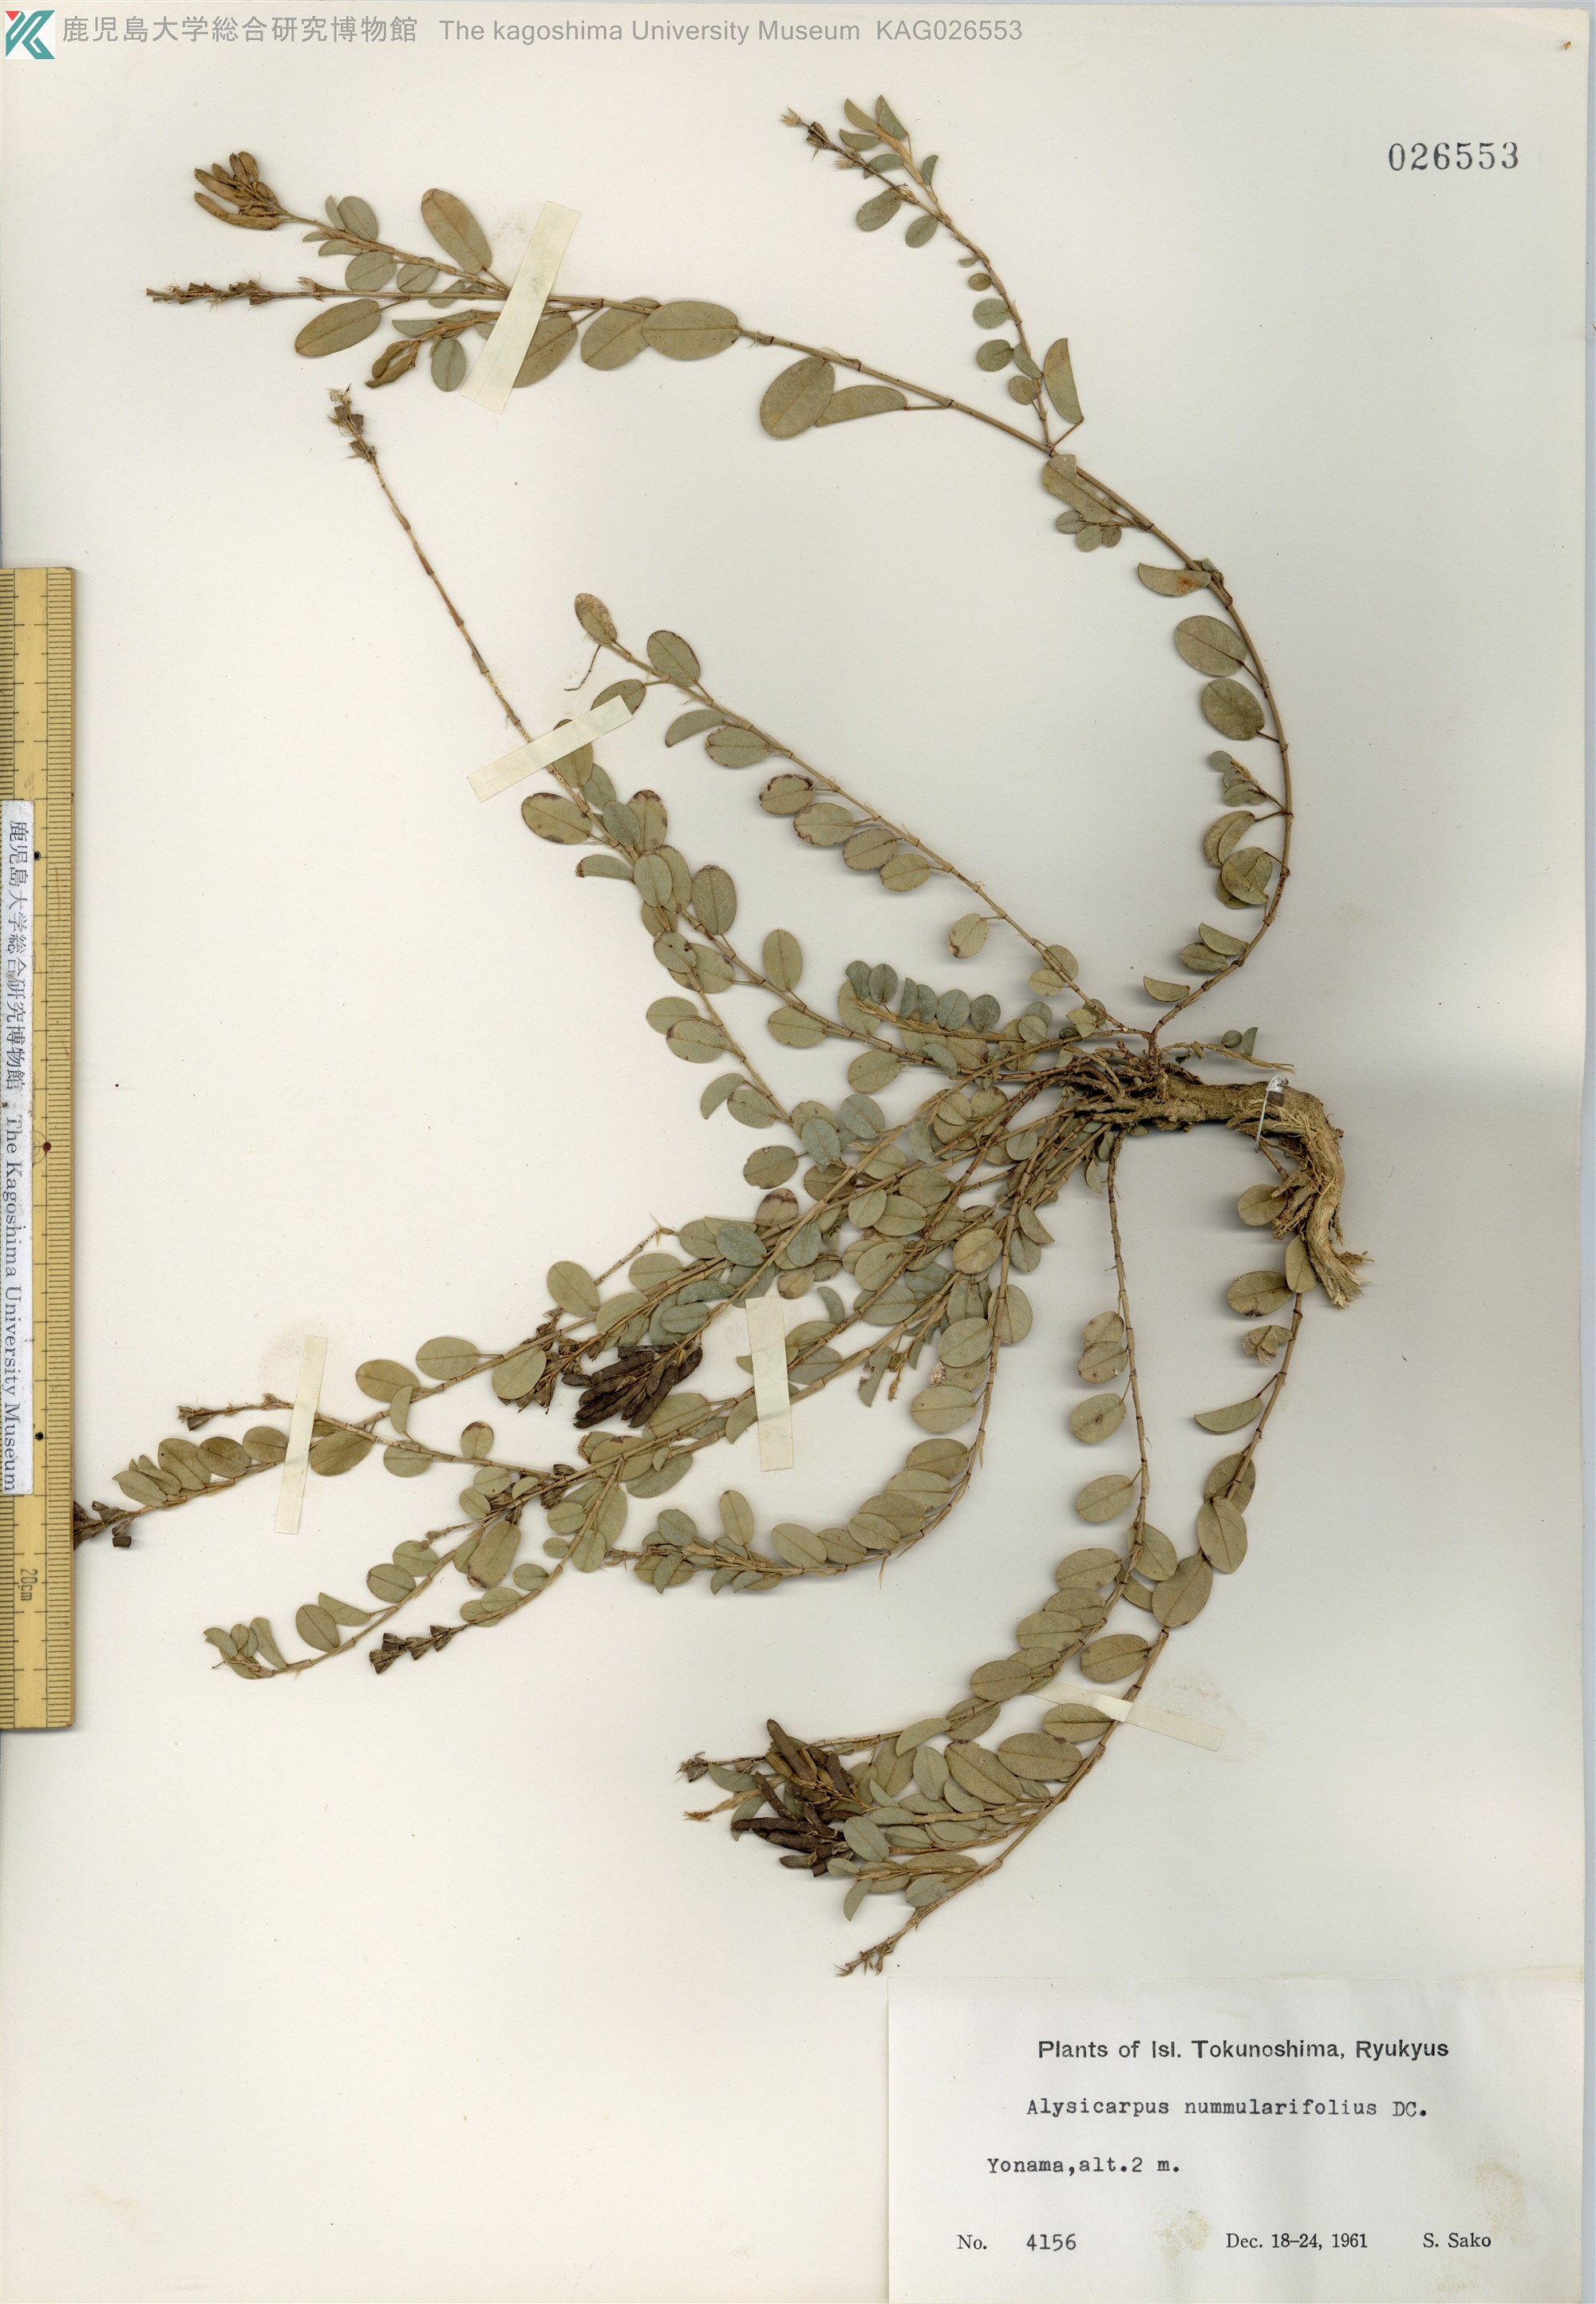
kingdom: Plantae
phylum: Tracheophyta
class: Magnoliopsida
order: Fabales
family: Fabaceae
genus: Alysicarpus
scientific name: Alysicarpus vaginalis
